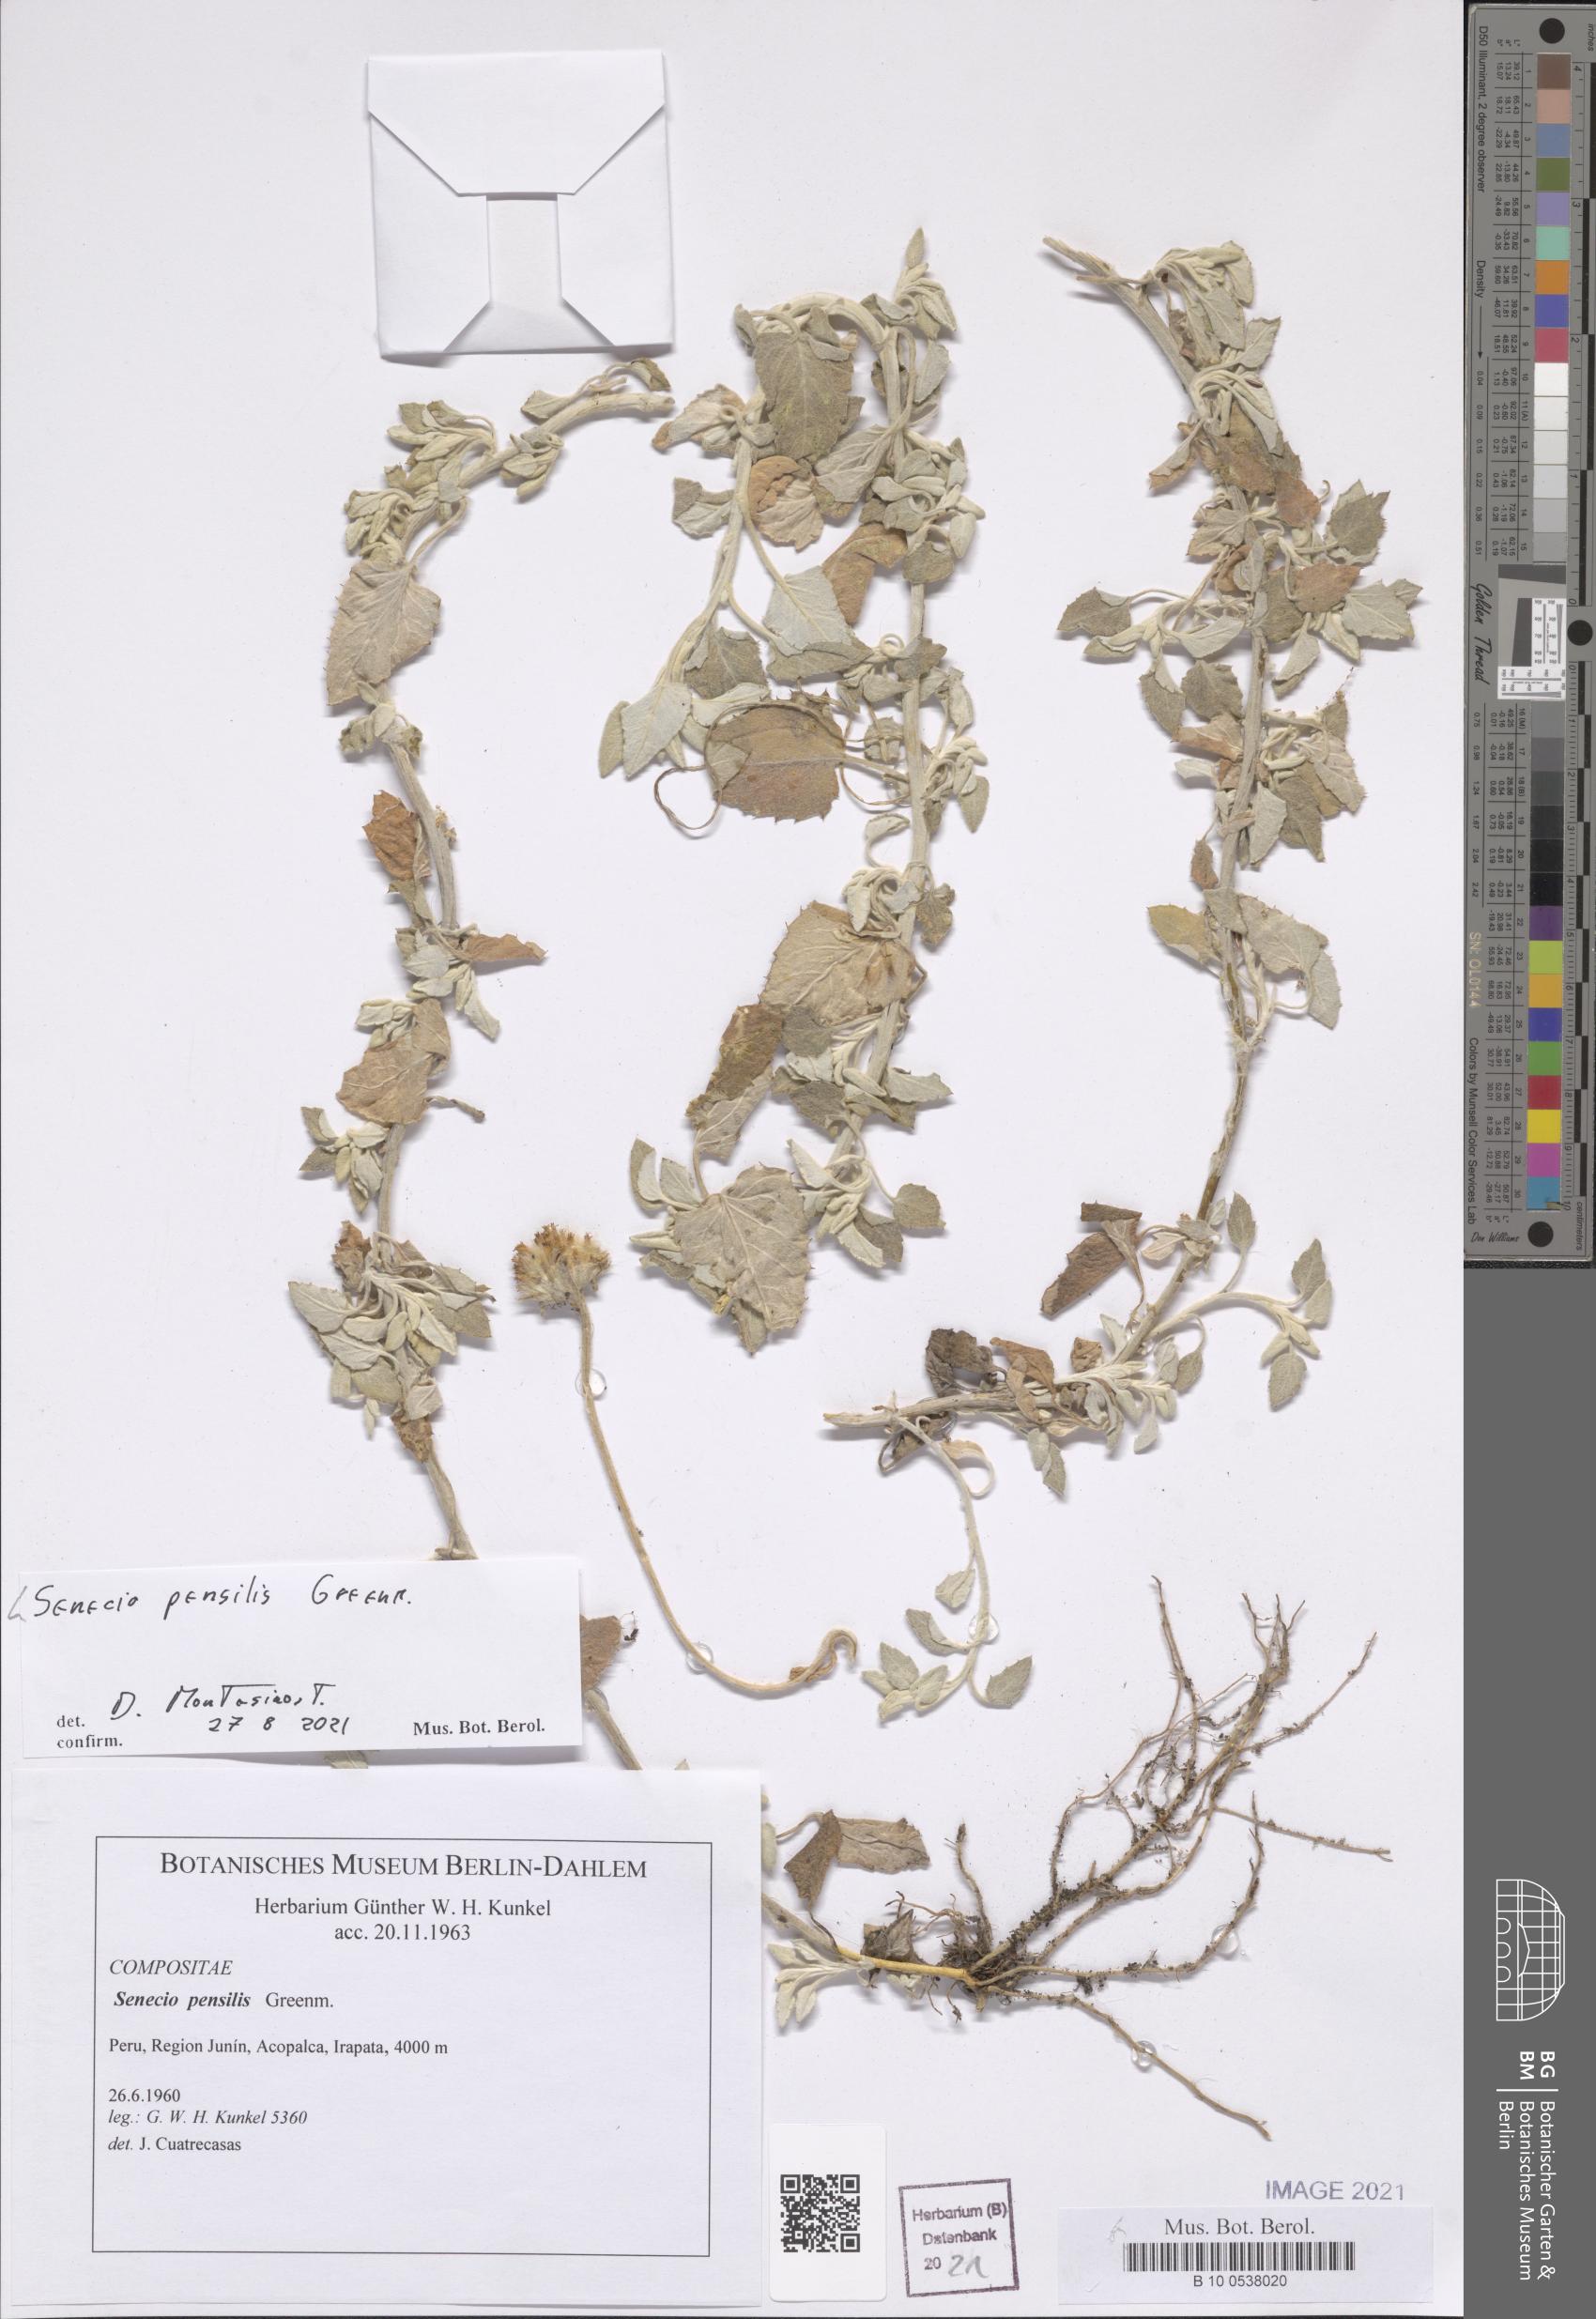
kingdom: Plantae
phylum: Tracheophyta
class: Magnoliopsida
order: Asterales
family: Asteraceae
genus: Senecio
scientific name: Senecio pensilis
